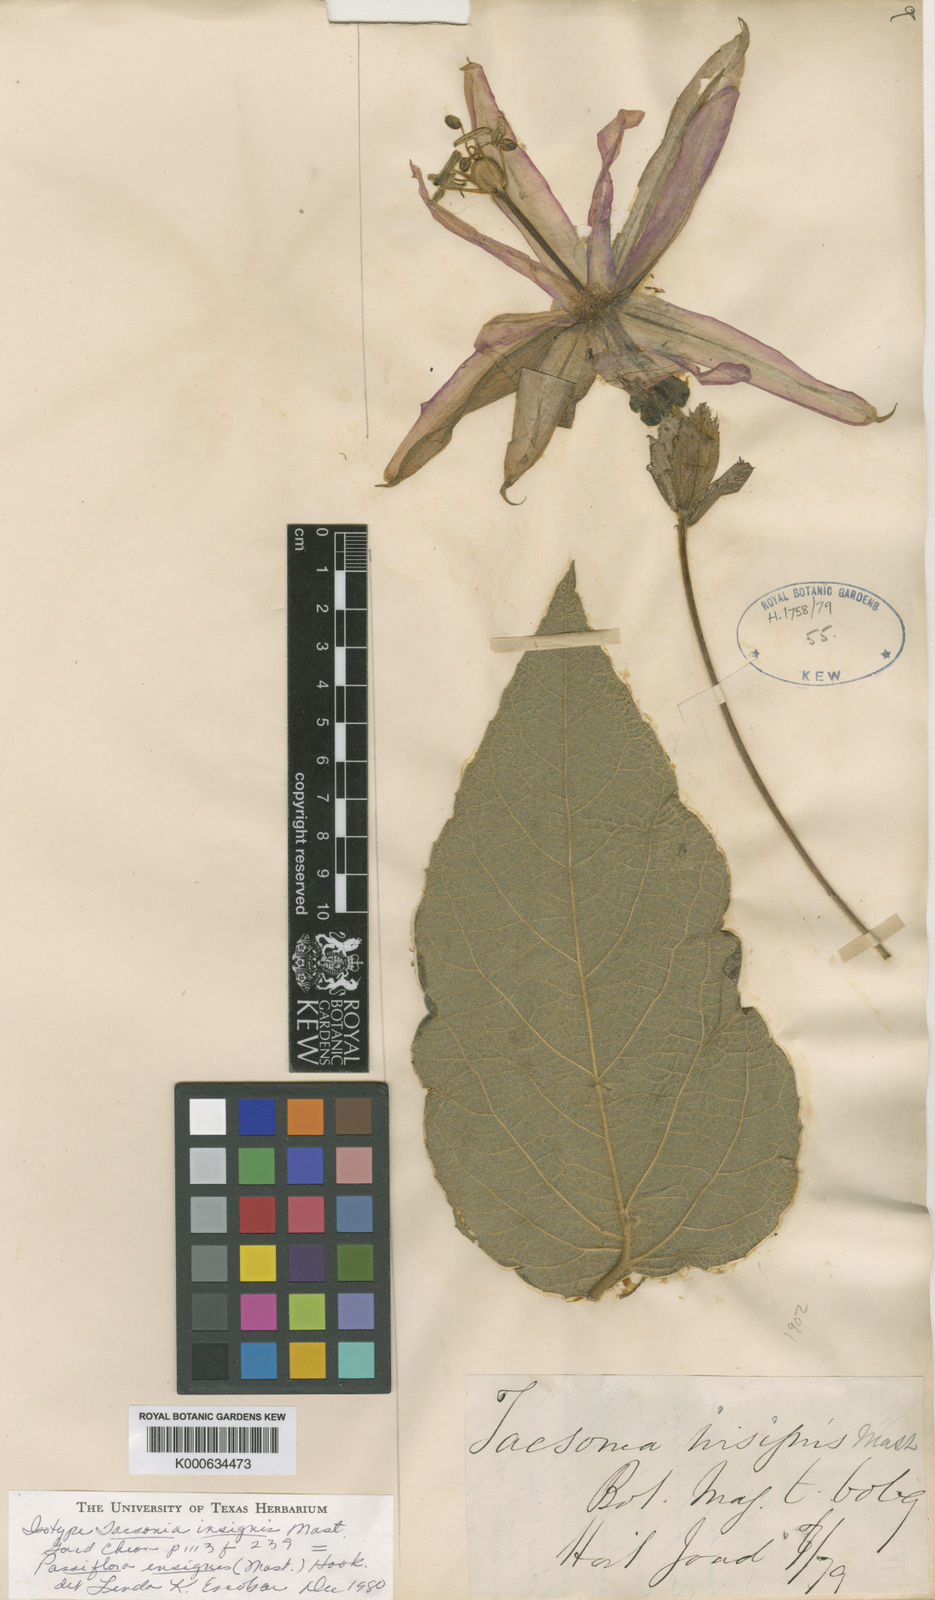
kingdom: Plantae
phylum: Tracheophyta
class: Magnoliopsida
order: Malpighiales
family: Passifloraceae
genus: Passiflora
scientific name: Passiflora insignis
